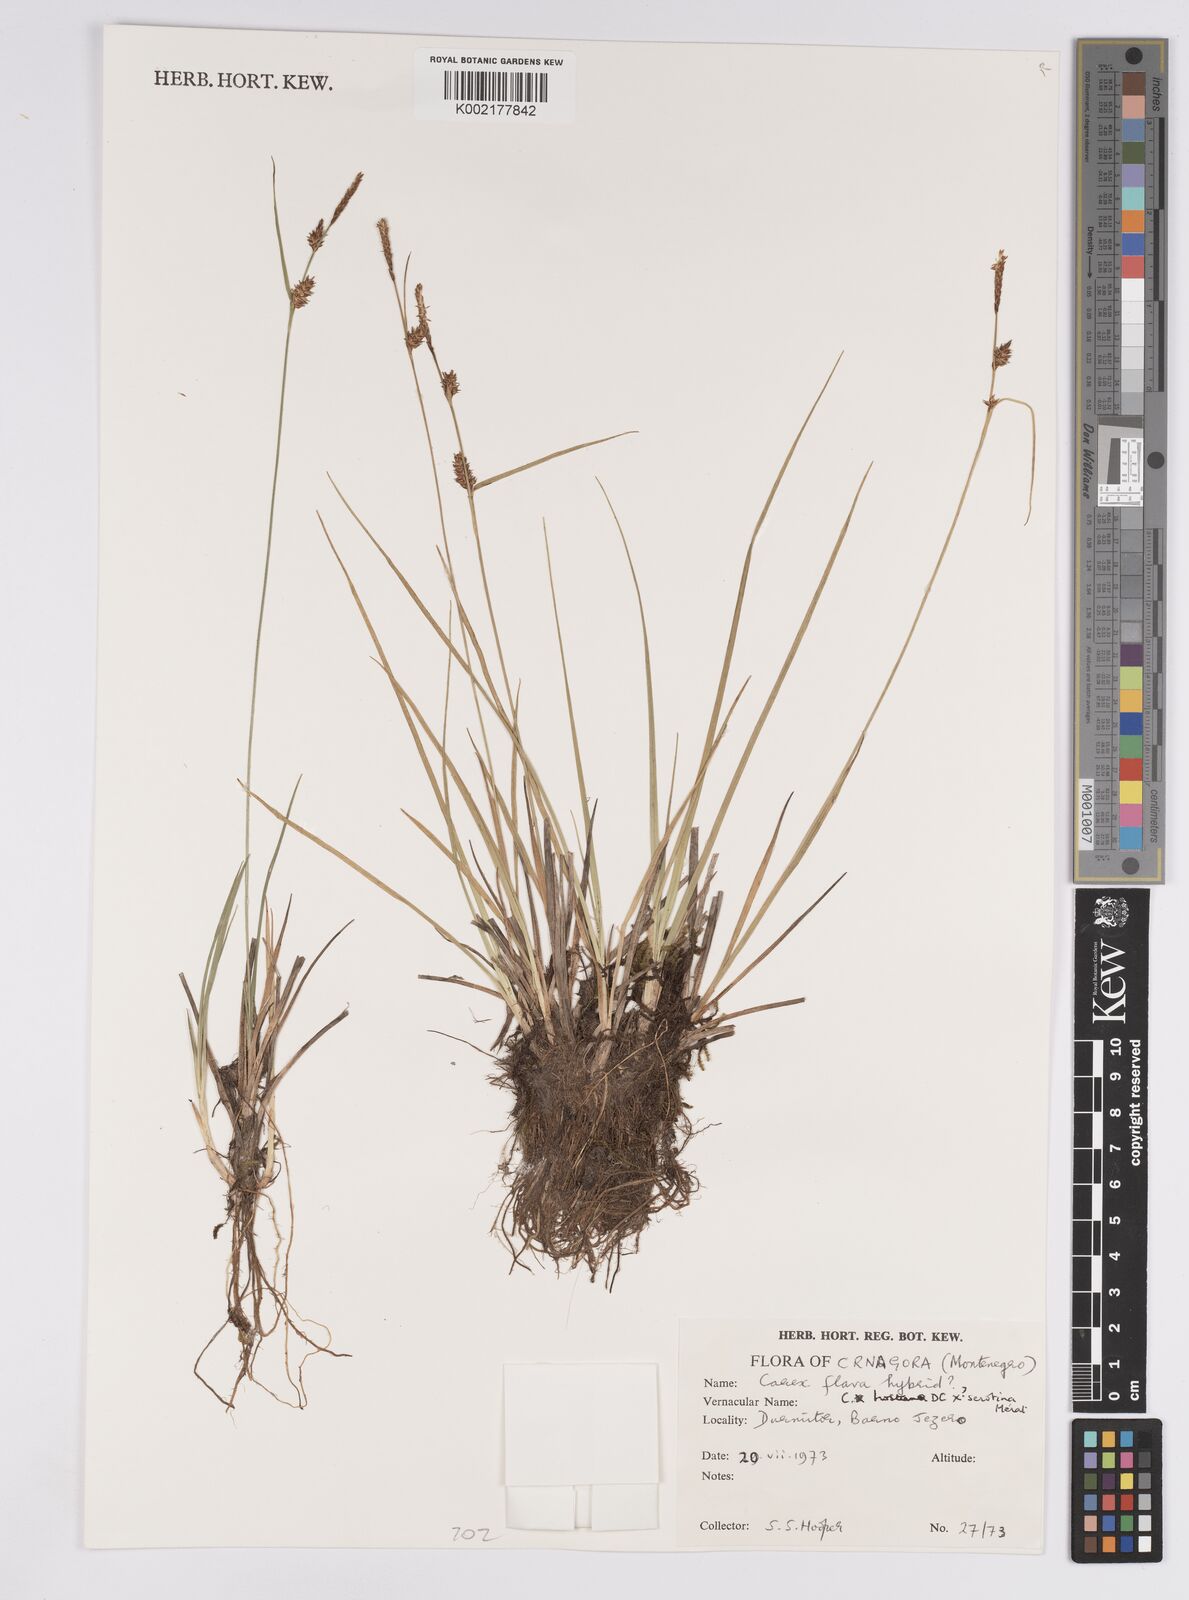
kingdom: Plantae
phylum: Tracheophyta
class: Liliopsida
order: Poales
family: Cyperaceae
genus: Carex
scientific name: Carex flava
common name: Large yellow-sedge
